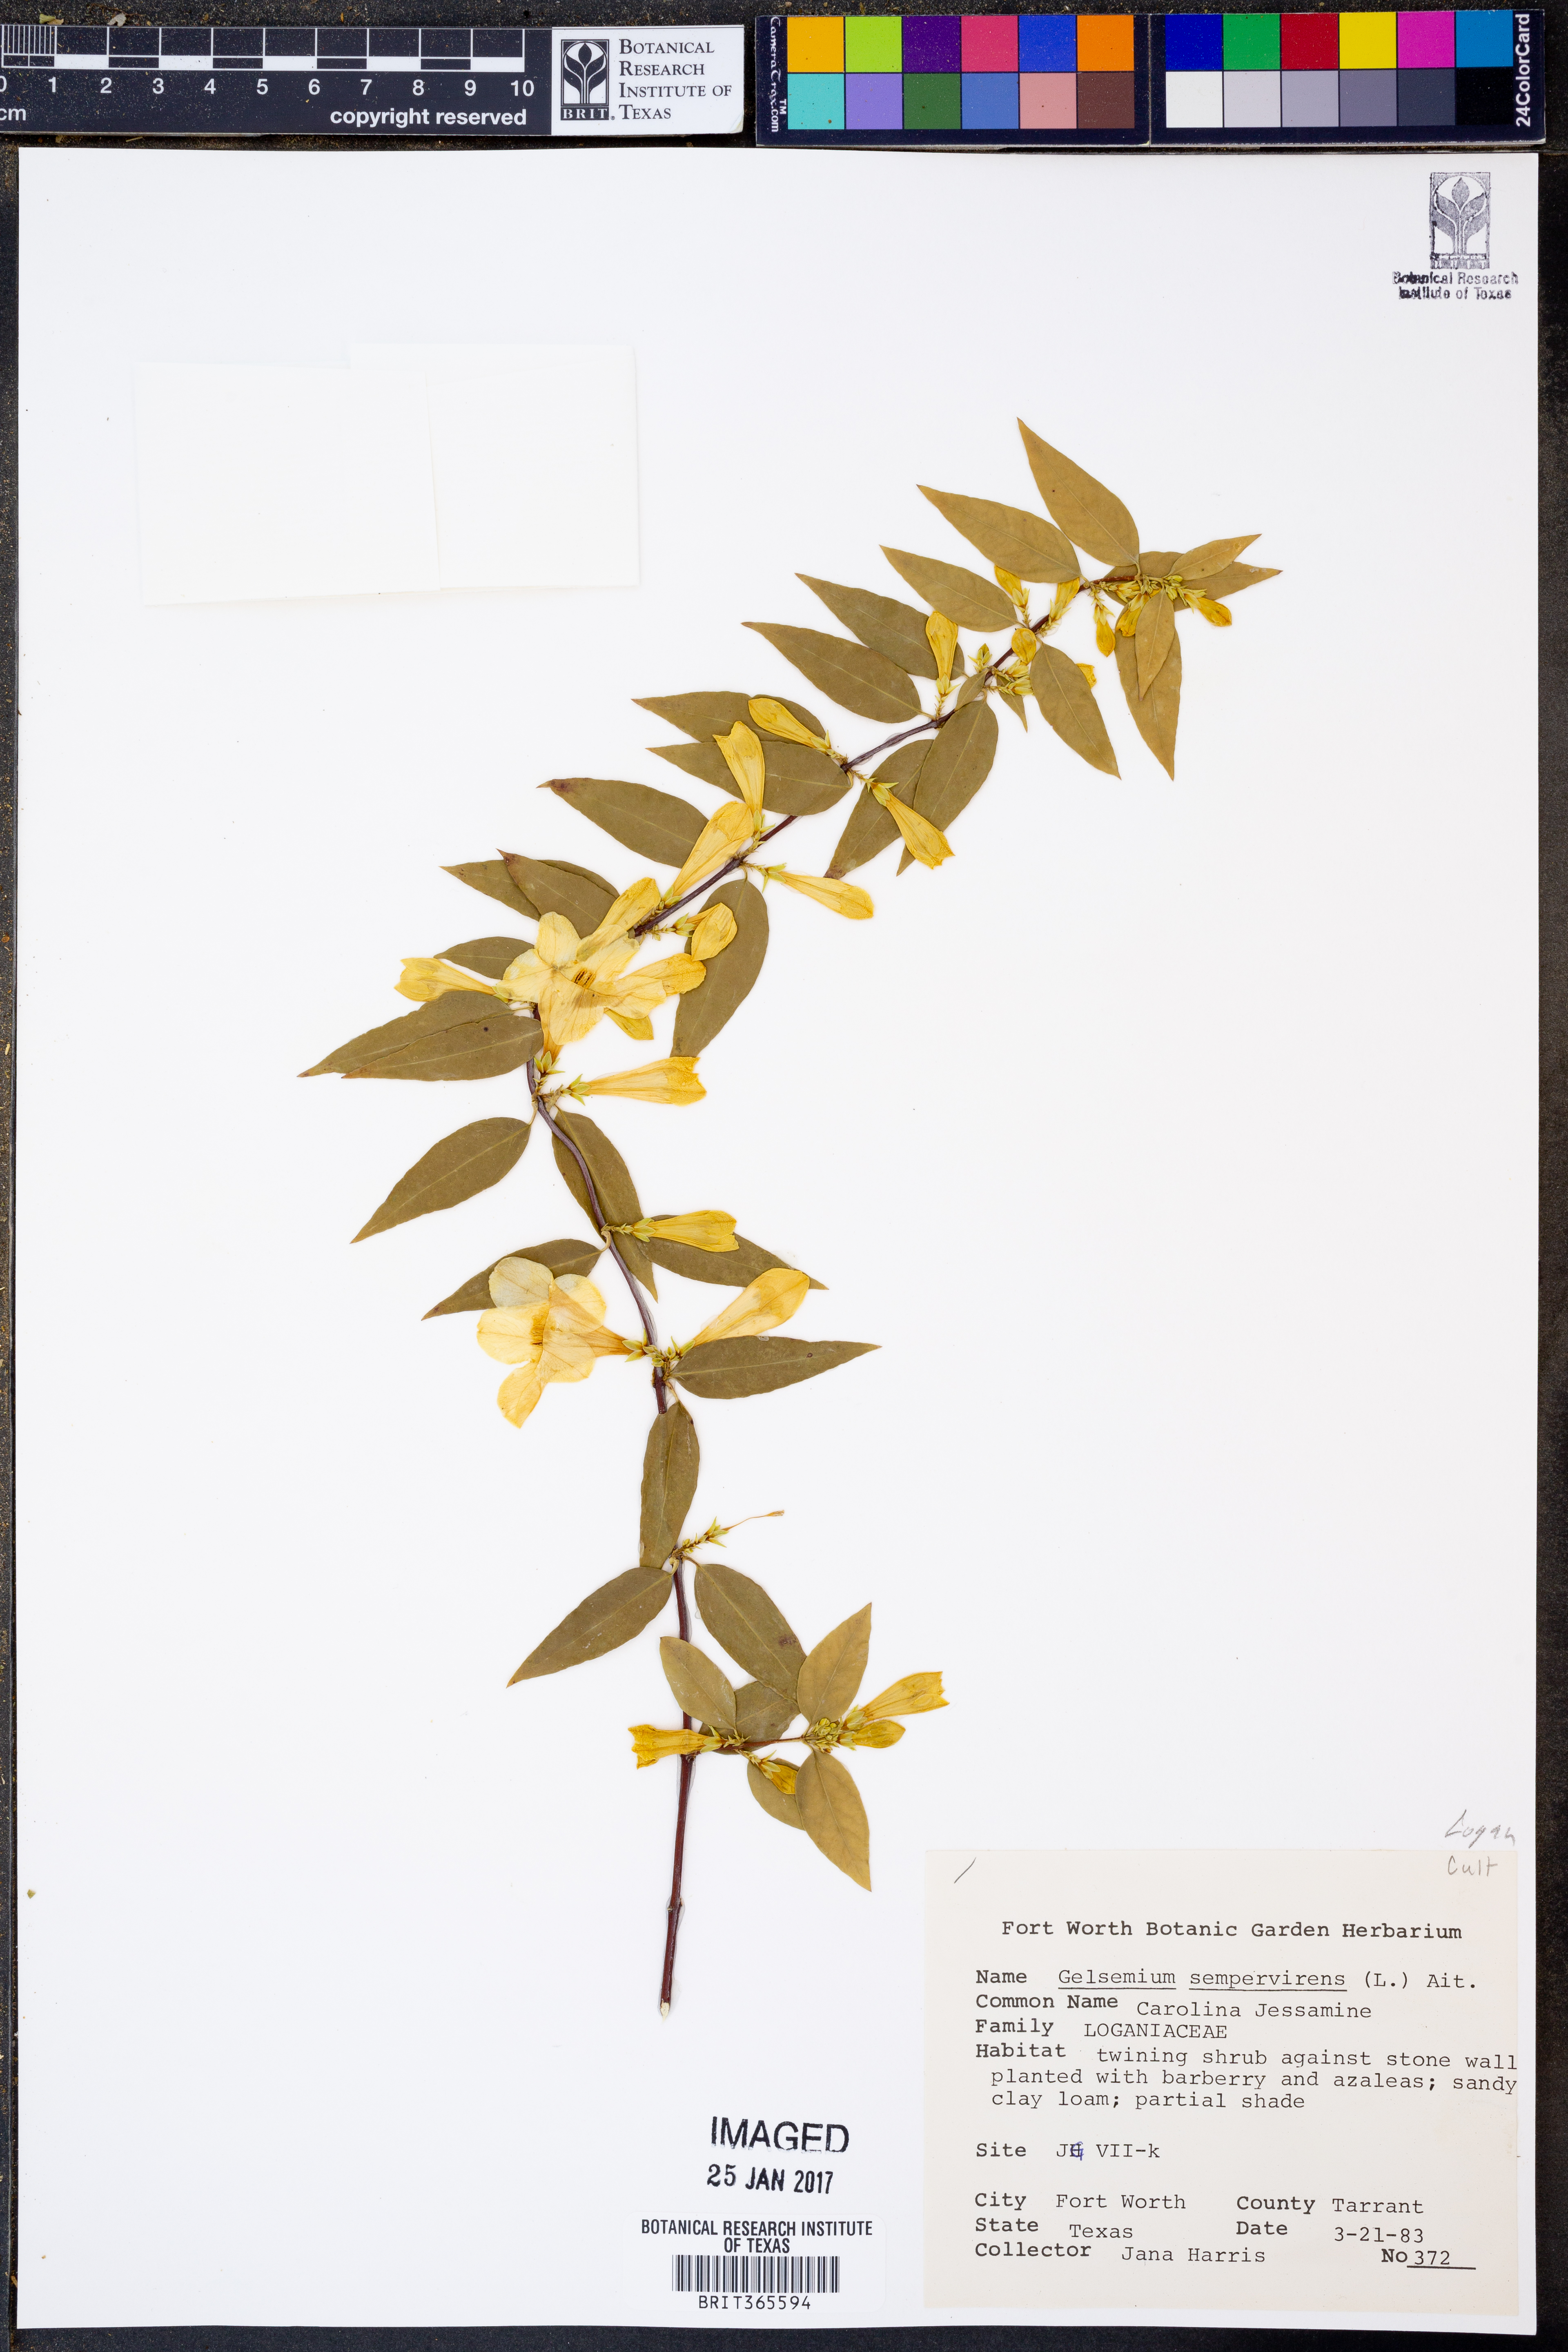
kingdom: Plantae
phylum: Tracheophyta
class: Magnoliopsida
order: Gentianales
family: Gelsemiaceae
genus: Gelsemium
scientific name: Gelsemium sempervirens
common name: Carolina-jasmine
